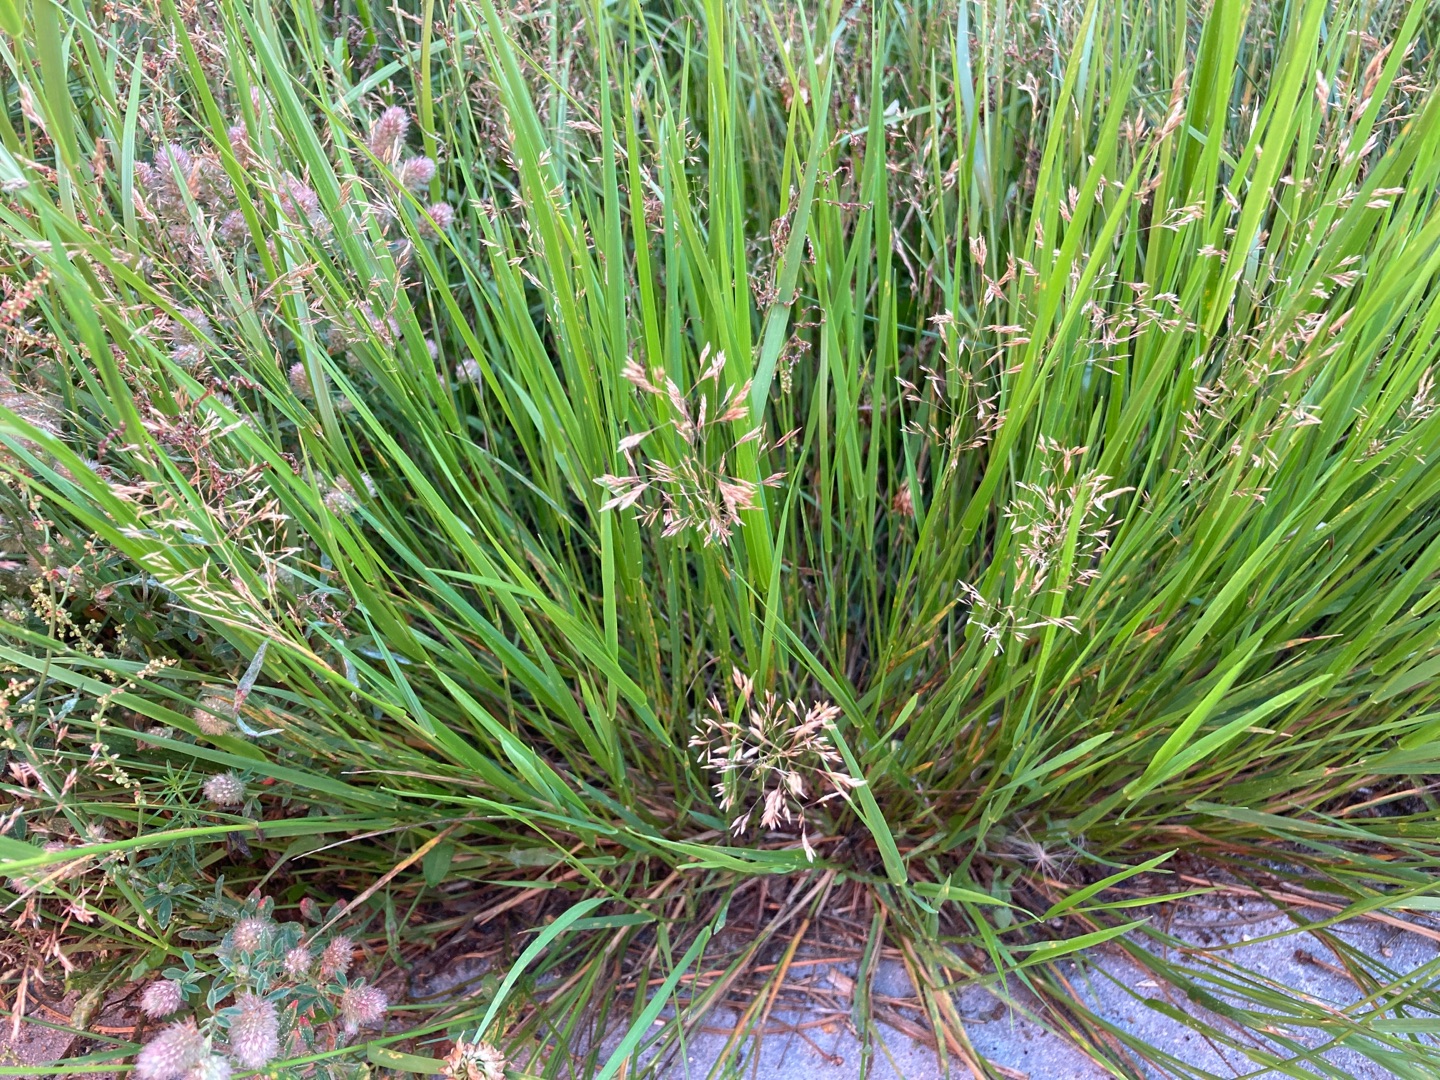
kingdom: Plantae
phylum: Tracheophyta
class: Liliopsida
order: Poales
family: Poaceae
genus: Agrostis
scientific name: Agrostis stolonifera
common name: Kryb-hvene
